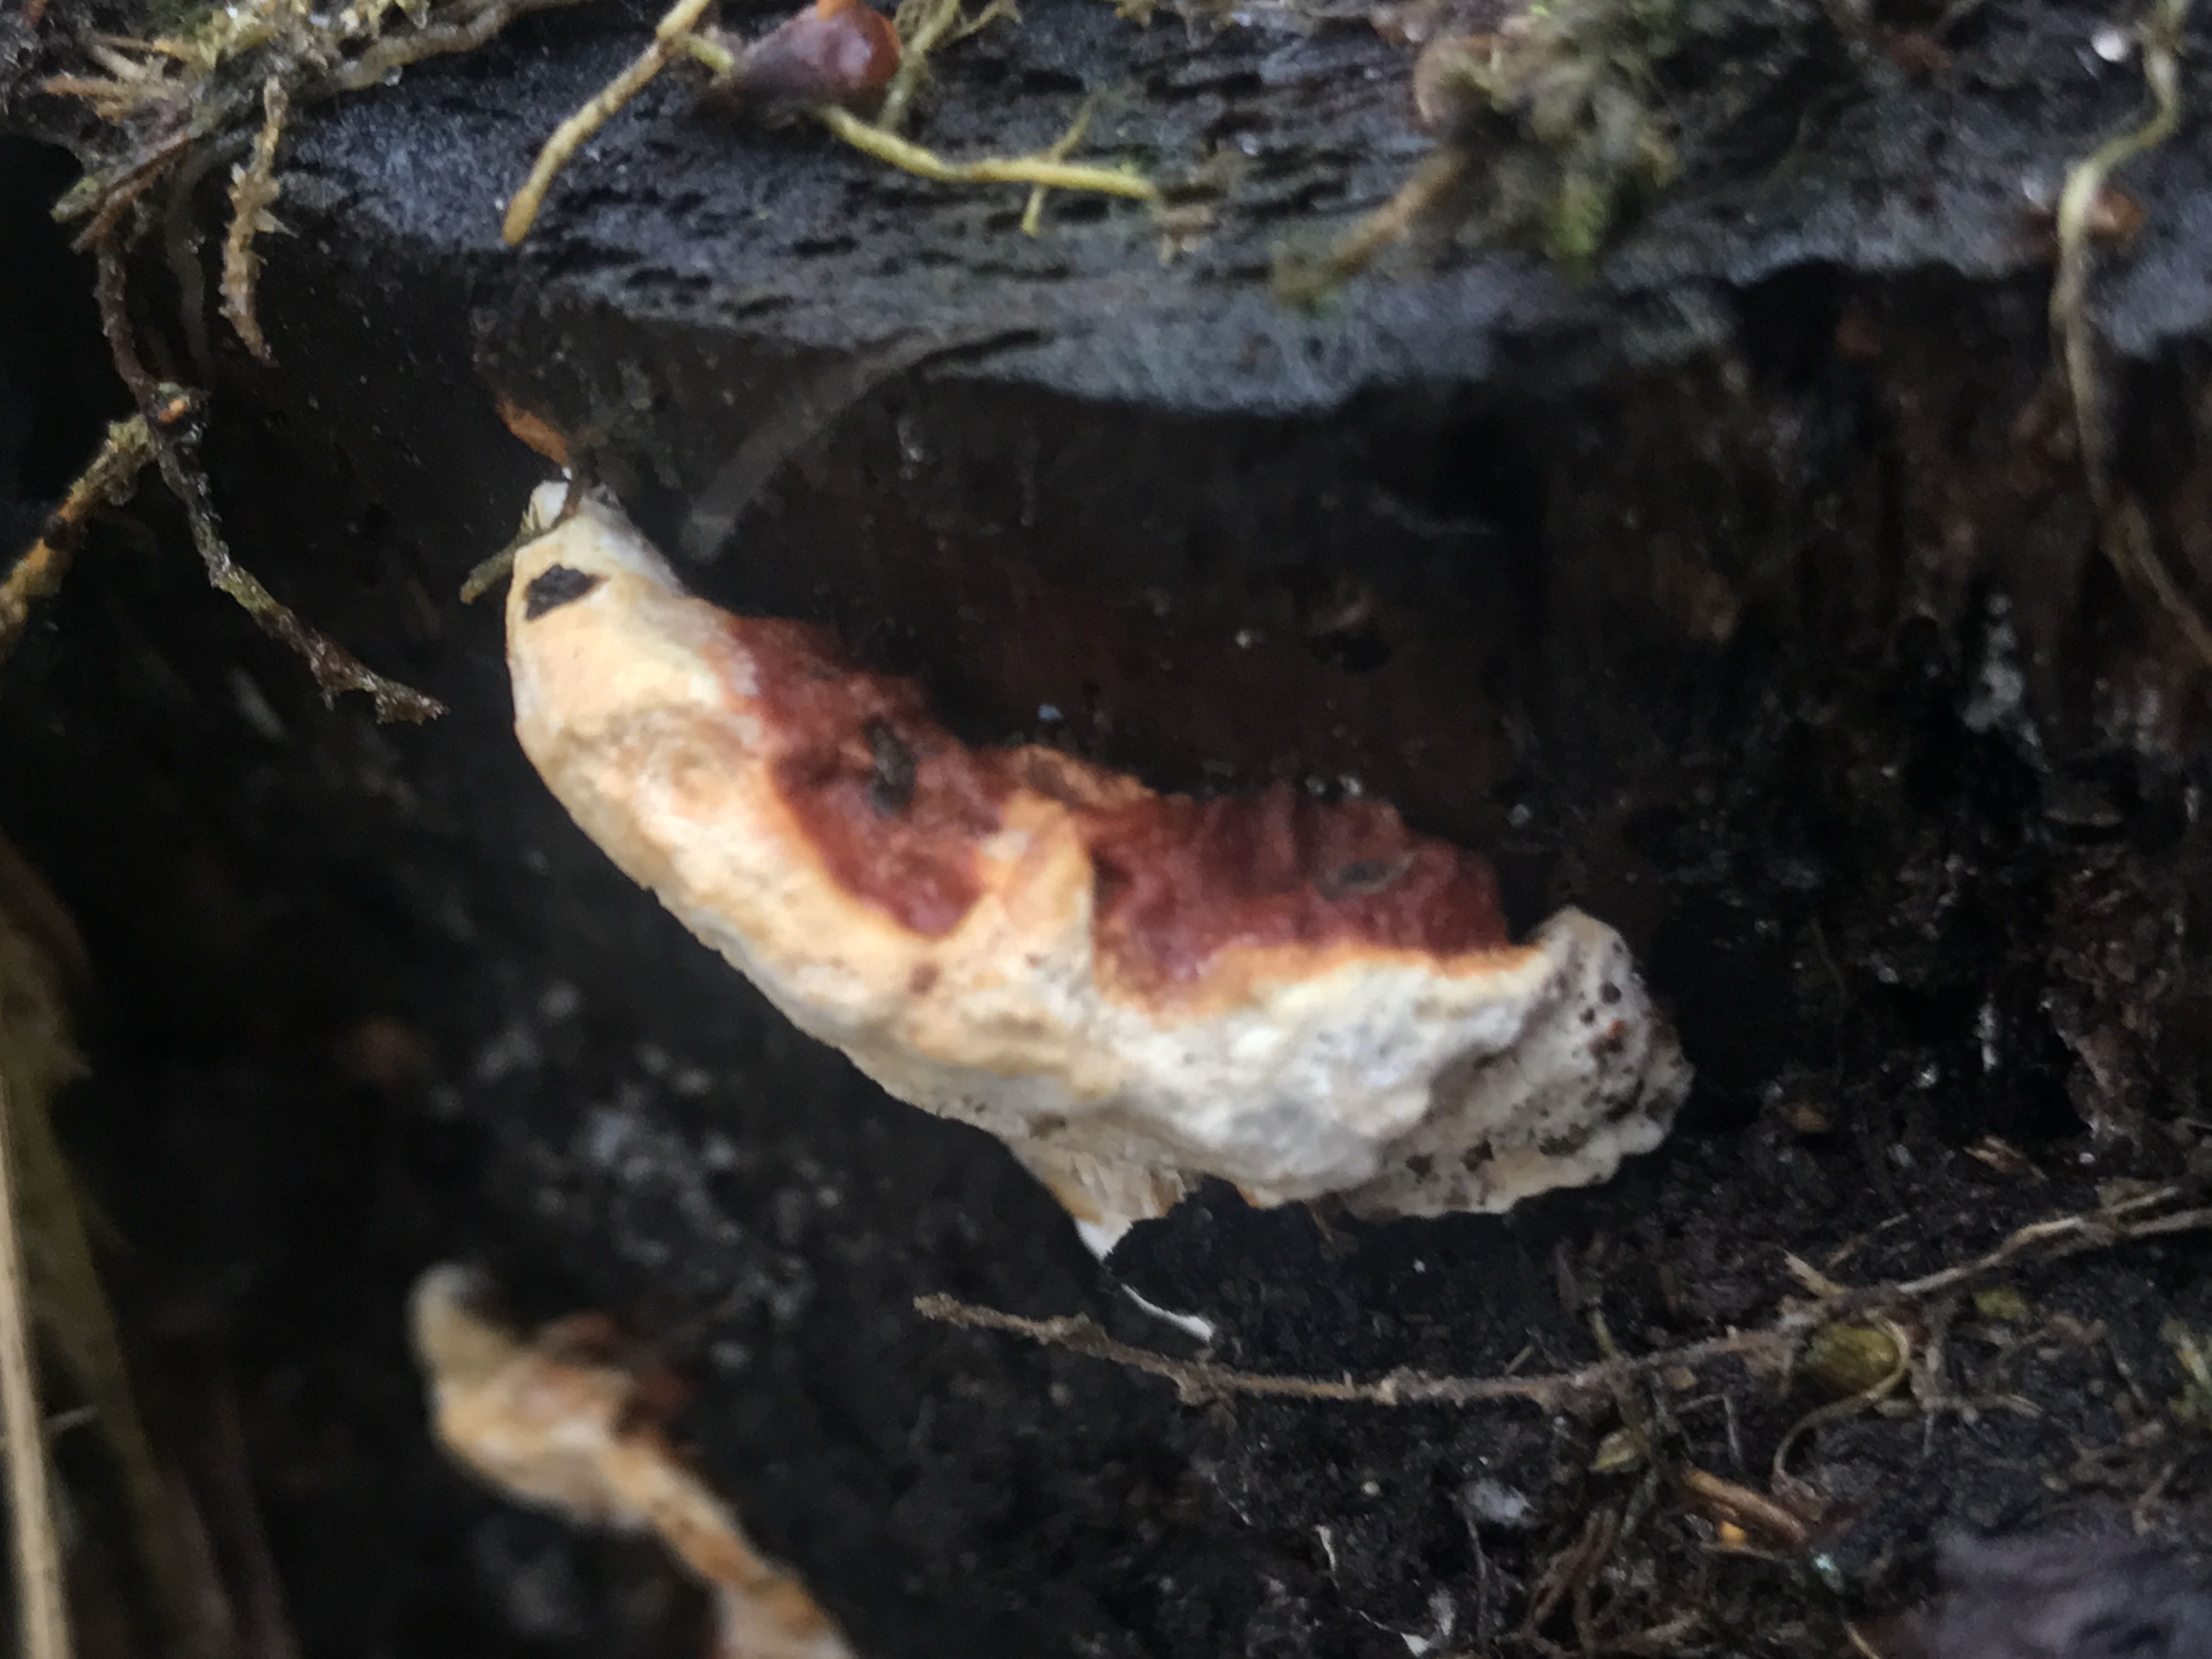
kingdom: Fungi
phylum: Basidiomycota
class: Agaricomycetes
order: Russulales
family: Bondarzewiaceae
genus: Heterobasidion
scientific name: Heterobasidion annosum
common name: almindelig rodfordærver
